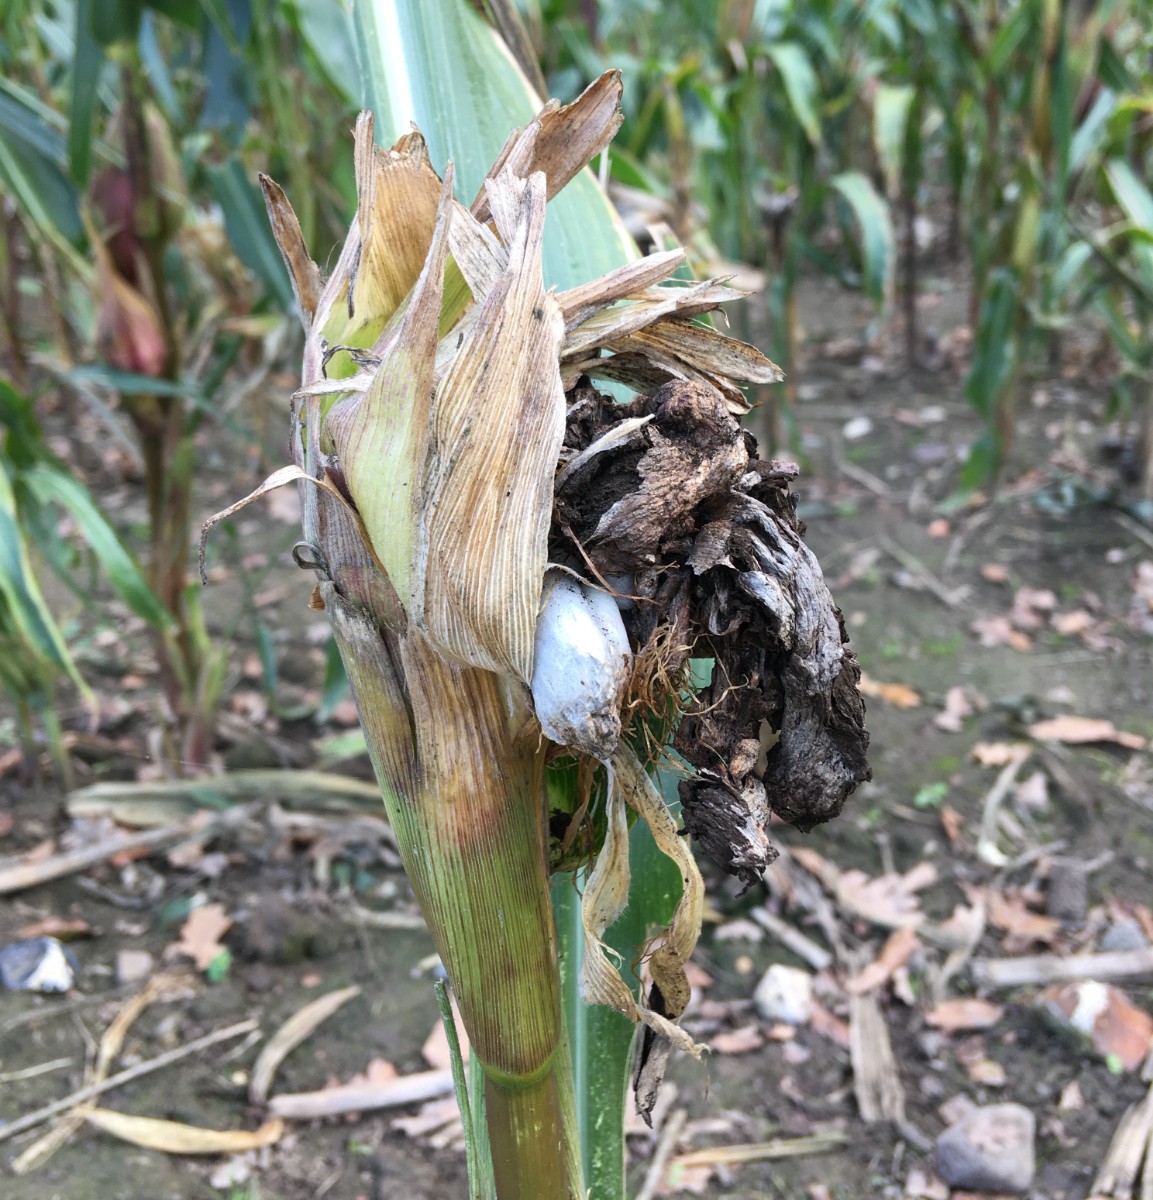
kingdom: Fungi
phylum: Basidiomycota
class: Ustilaginomycetes
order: Ustilaginales
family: Ustilaginaceae
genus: Mycosarcoma
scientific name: Mycosarcoma maydis
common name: majs-brand
